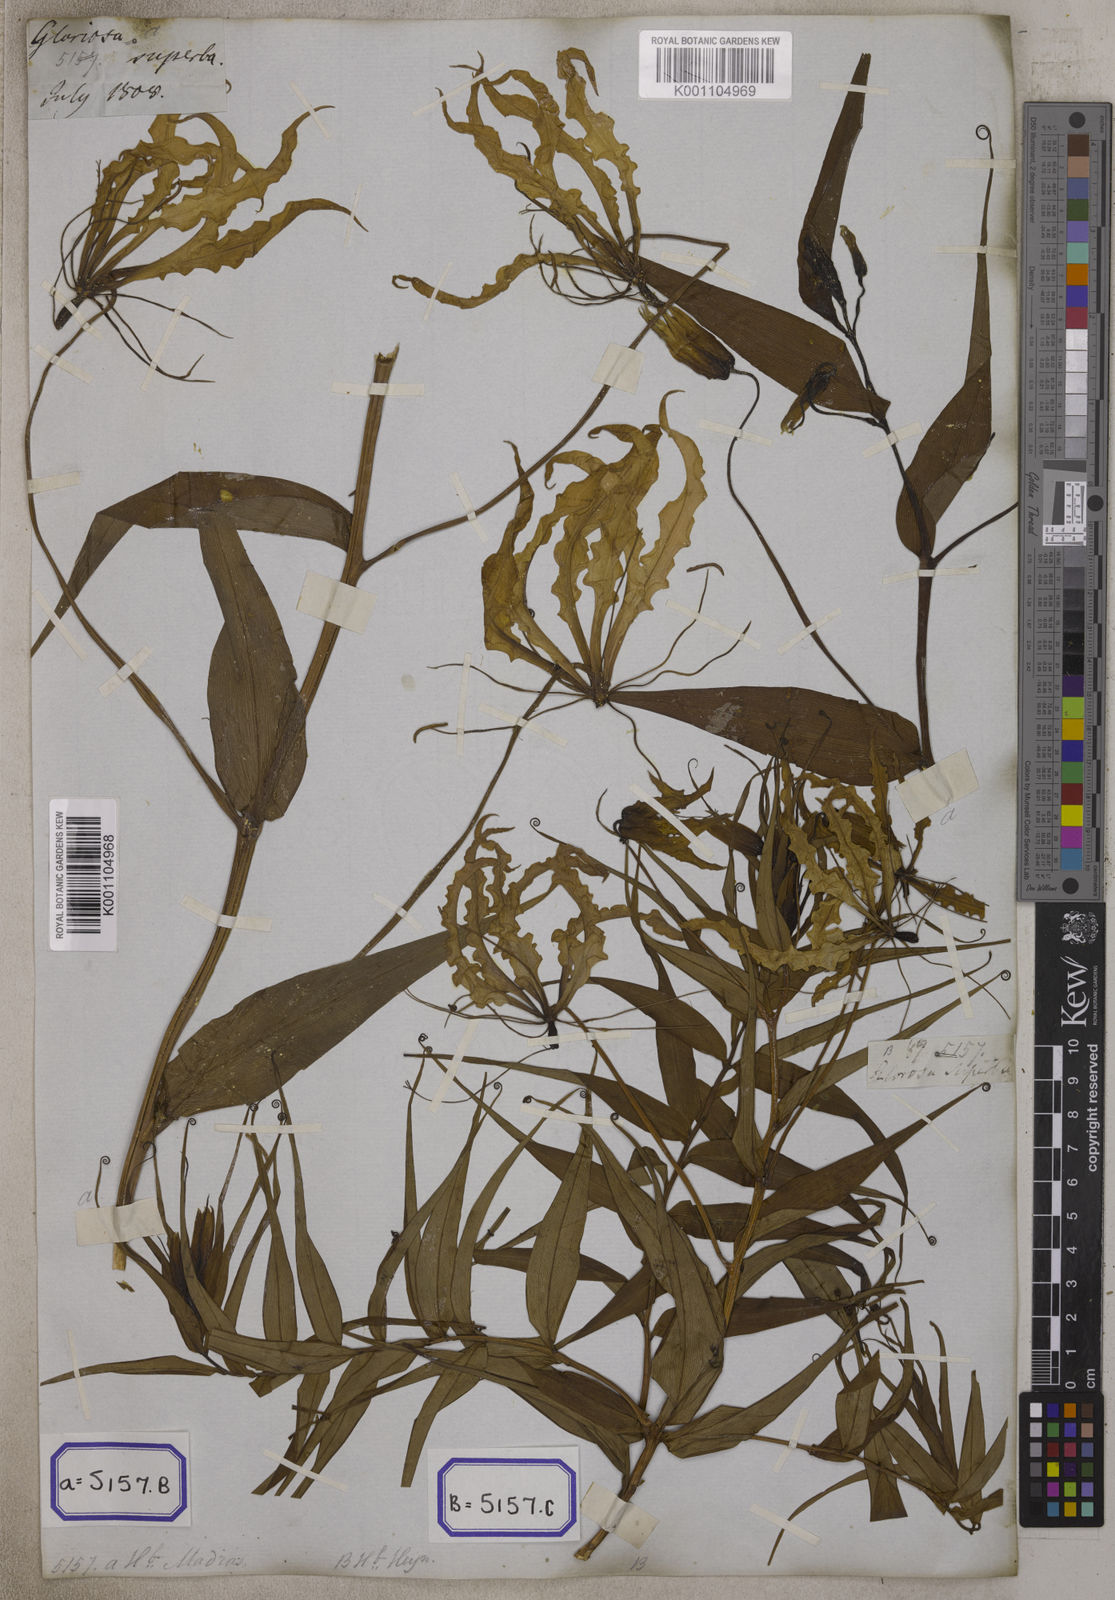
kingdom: Plantae
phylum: Tracheophyta
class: Liliopsida
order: Liliales
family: Colchicaceae
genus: Gloriosa
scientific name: Gloriosa superba
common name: Flame lily
